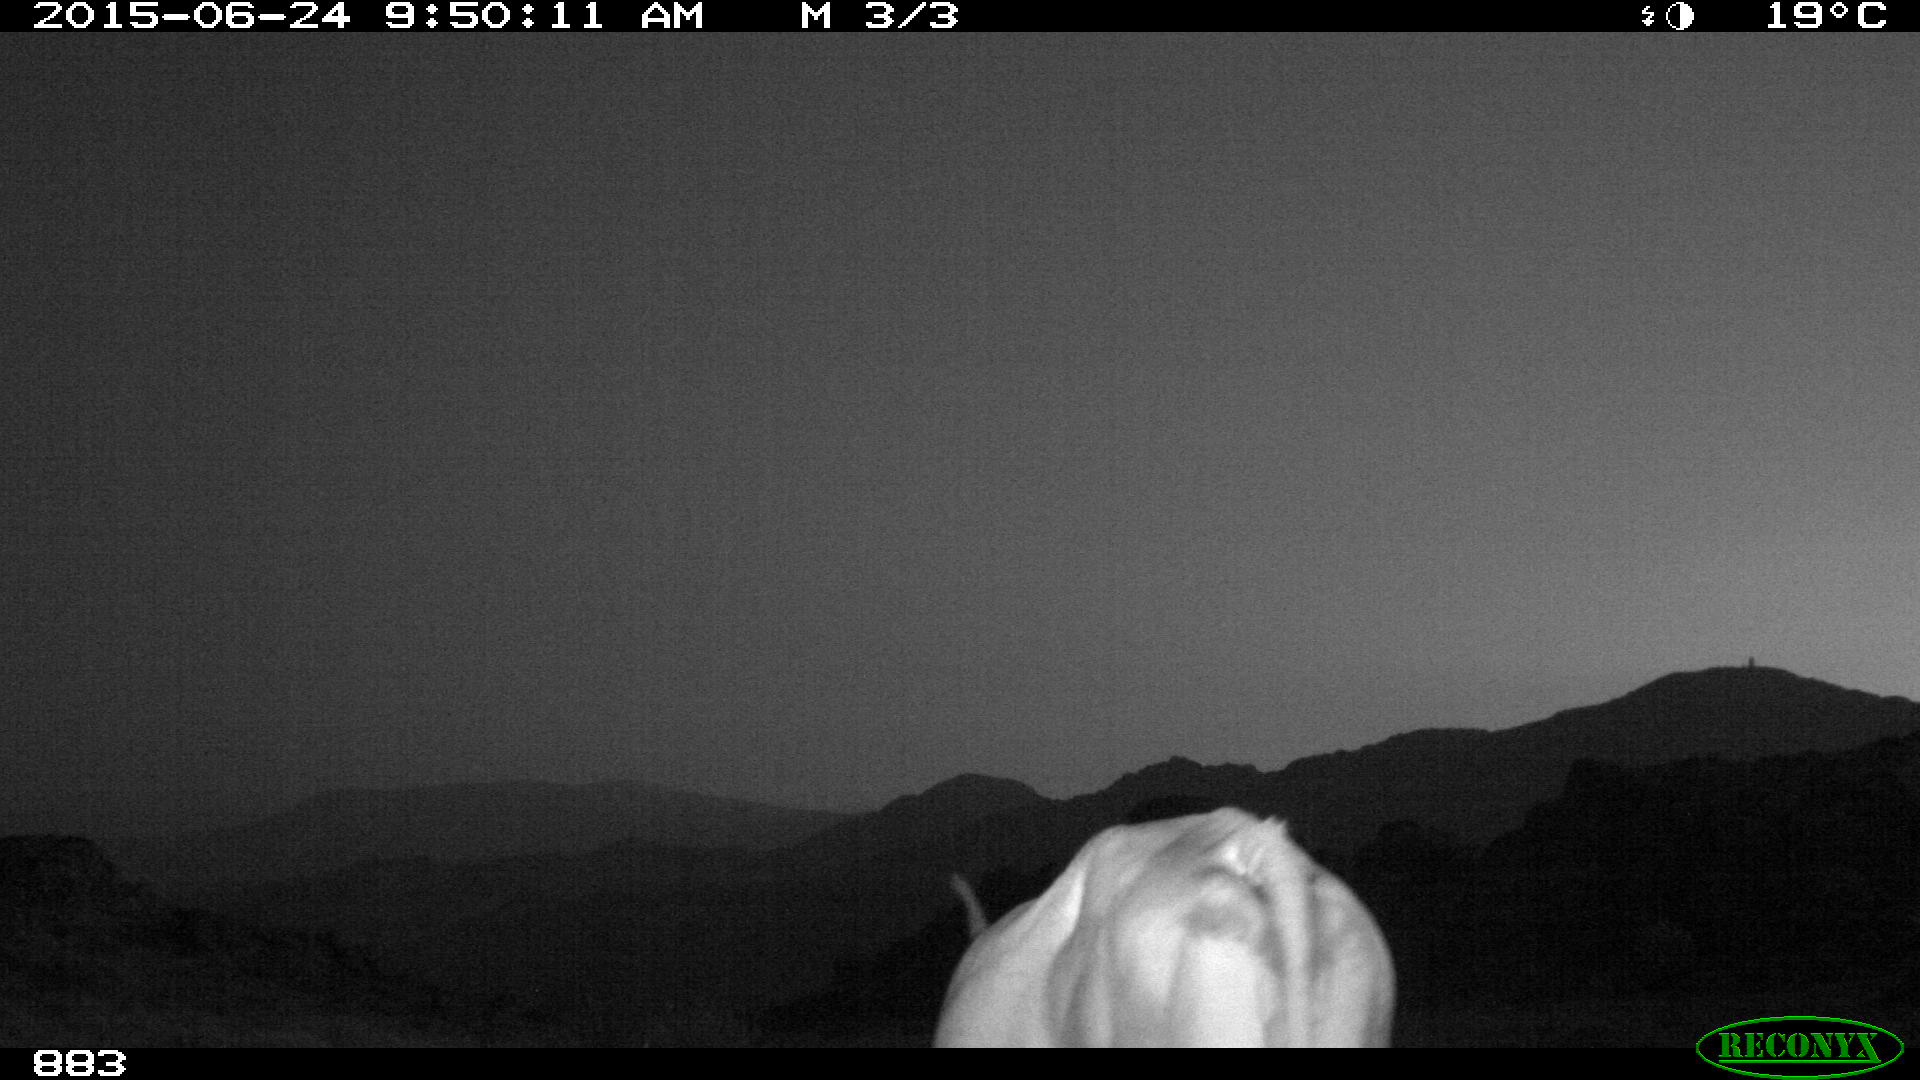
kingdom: Animalia
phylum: Chordata
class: Mammalia
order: Artiodactyla
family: Bovidae
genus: Bos
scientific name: Bos taurus
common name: Domesticated cattle
